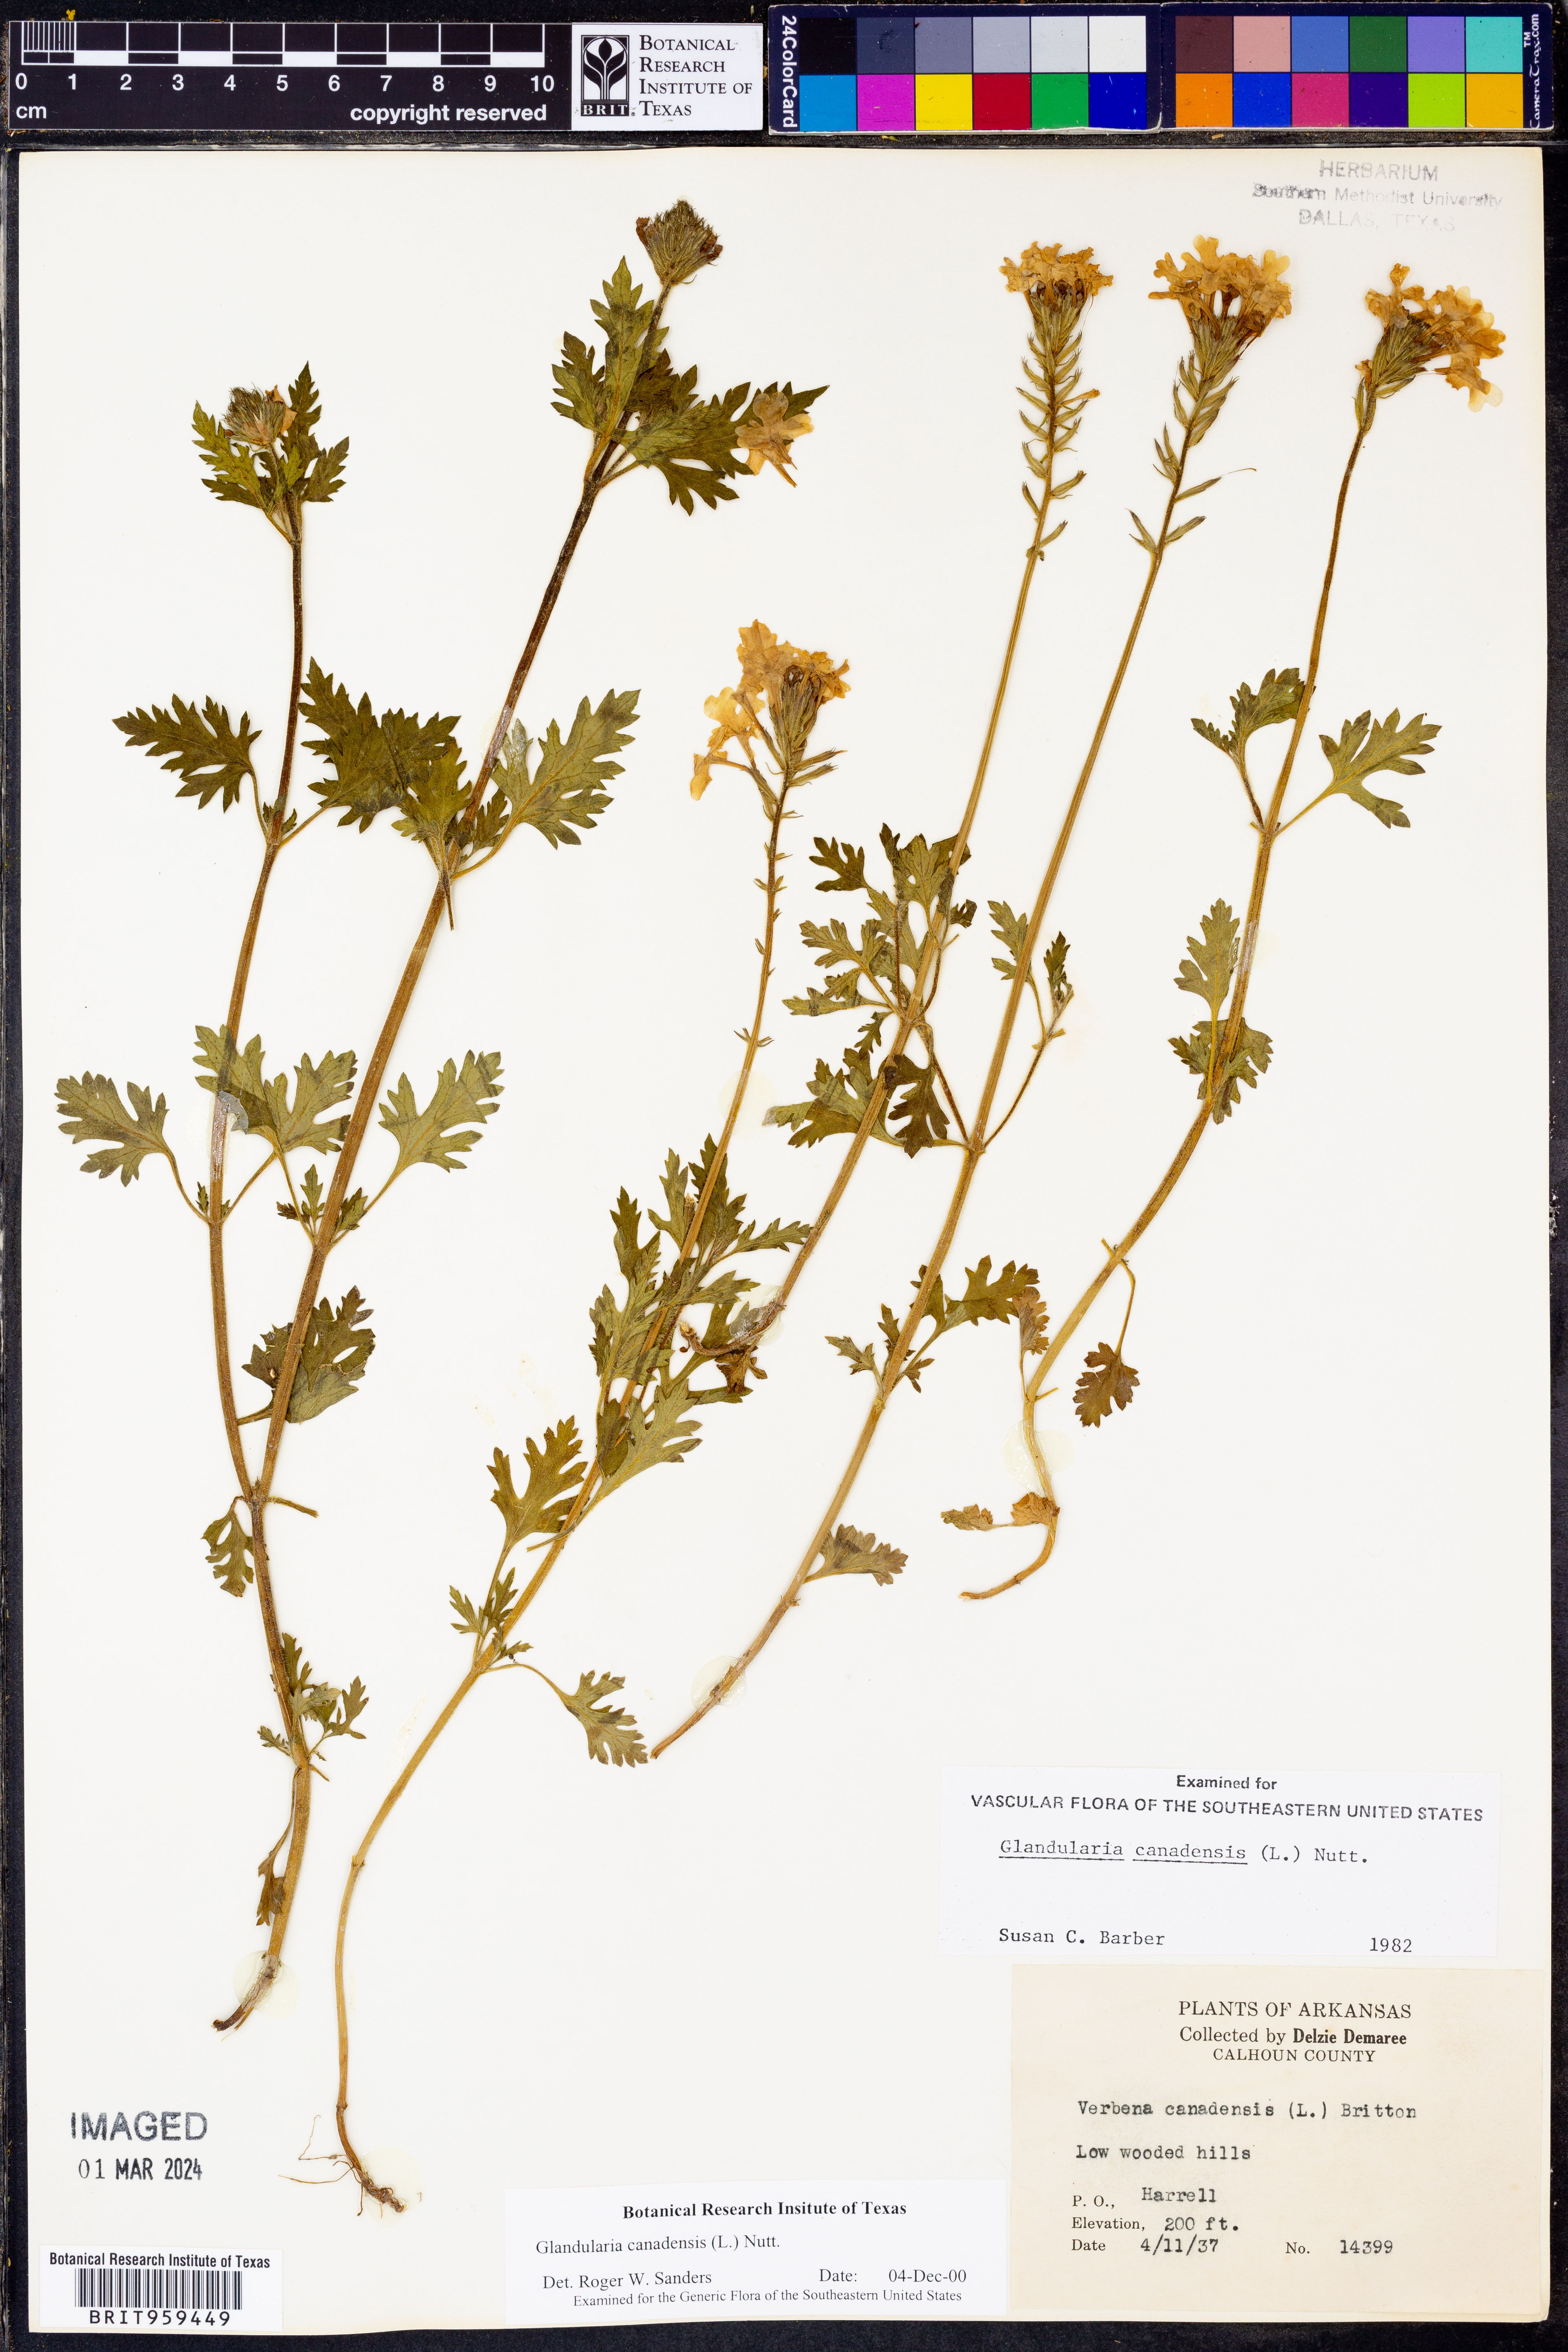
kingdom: Plantae
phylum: Tracheophyta
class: Magnoliopsida
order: Lamiales
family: Verbenaceae
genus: Verbena
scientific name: Verbena canadensis
